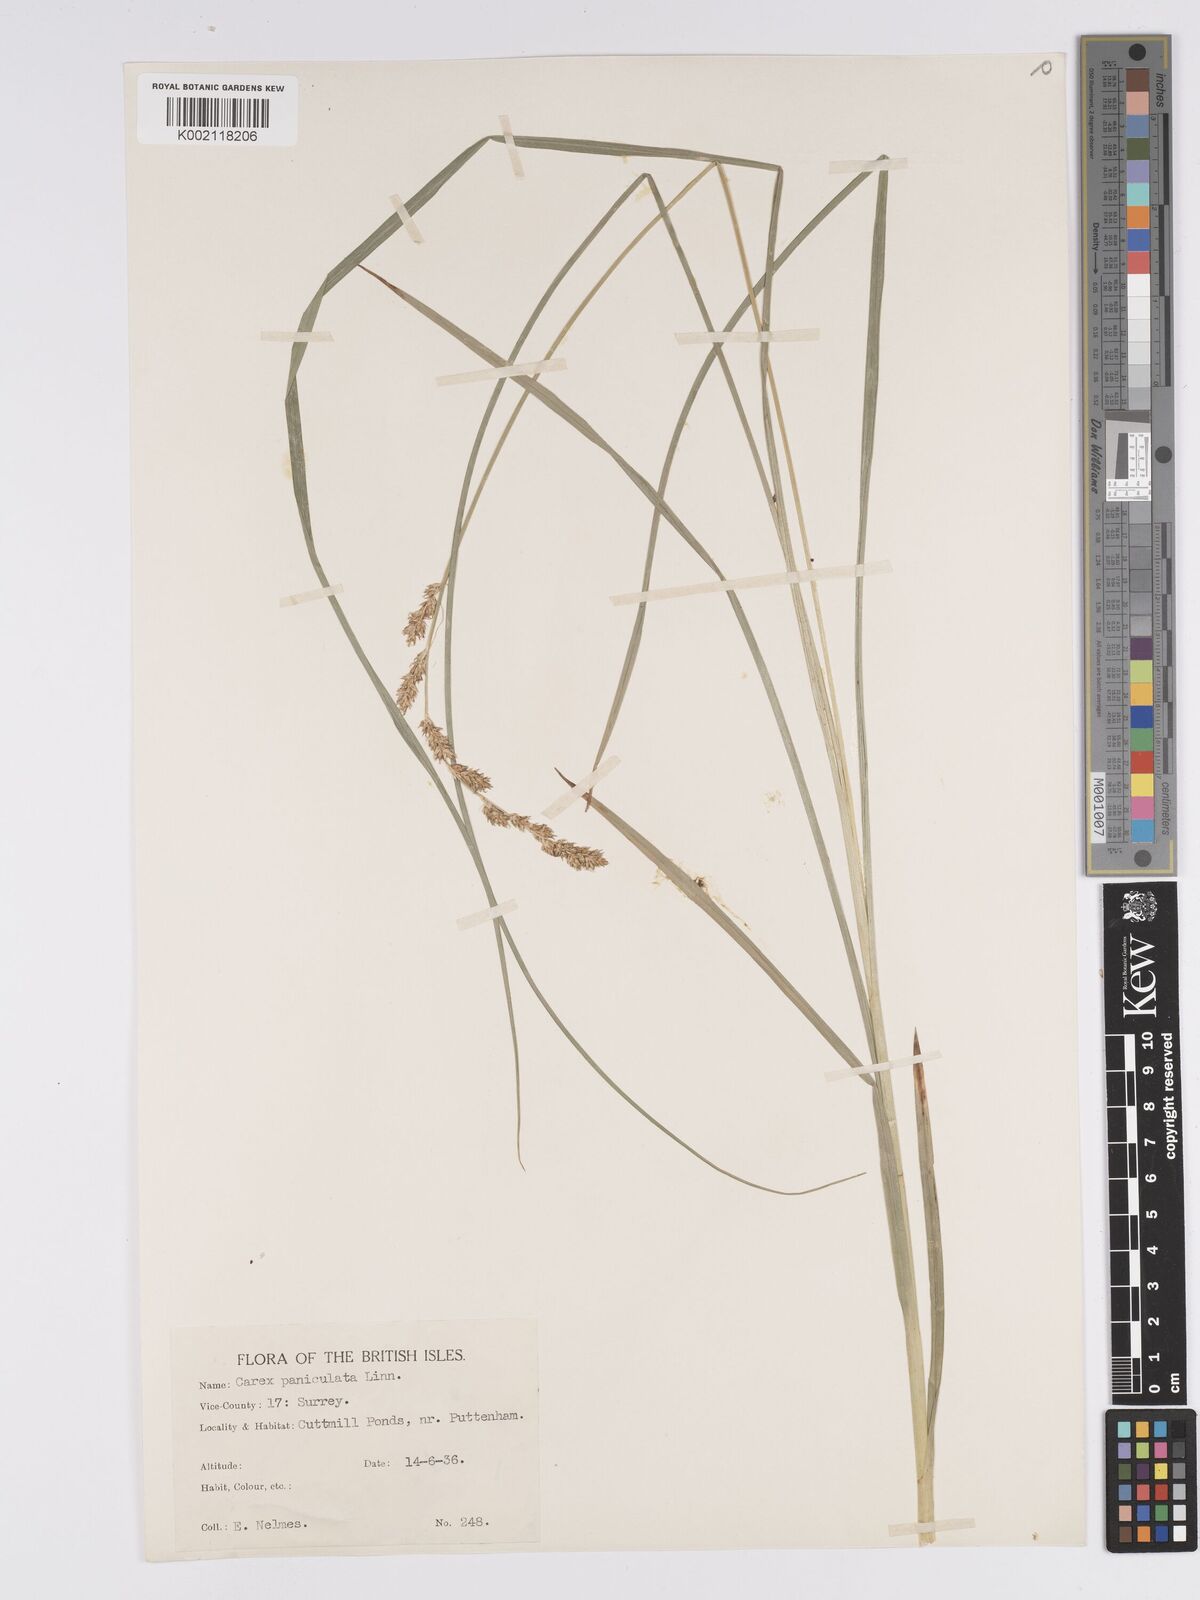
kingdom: Plantae
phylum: Tracheophyta
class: Liliopsida
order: Poales
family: Cyperaceae
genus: Carex
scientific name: Carex paniculata
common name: Greater tussock-sedge
